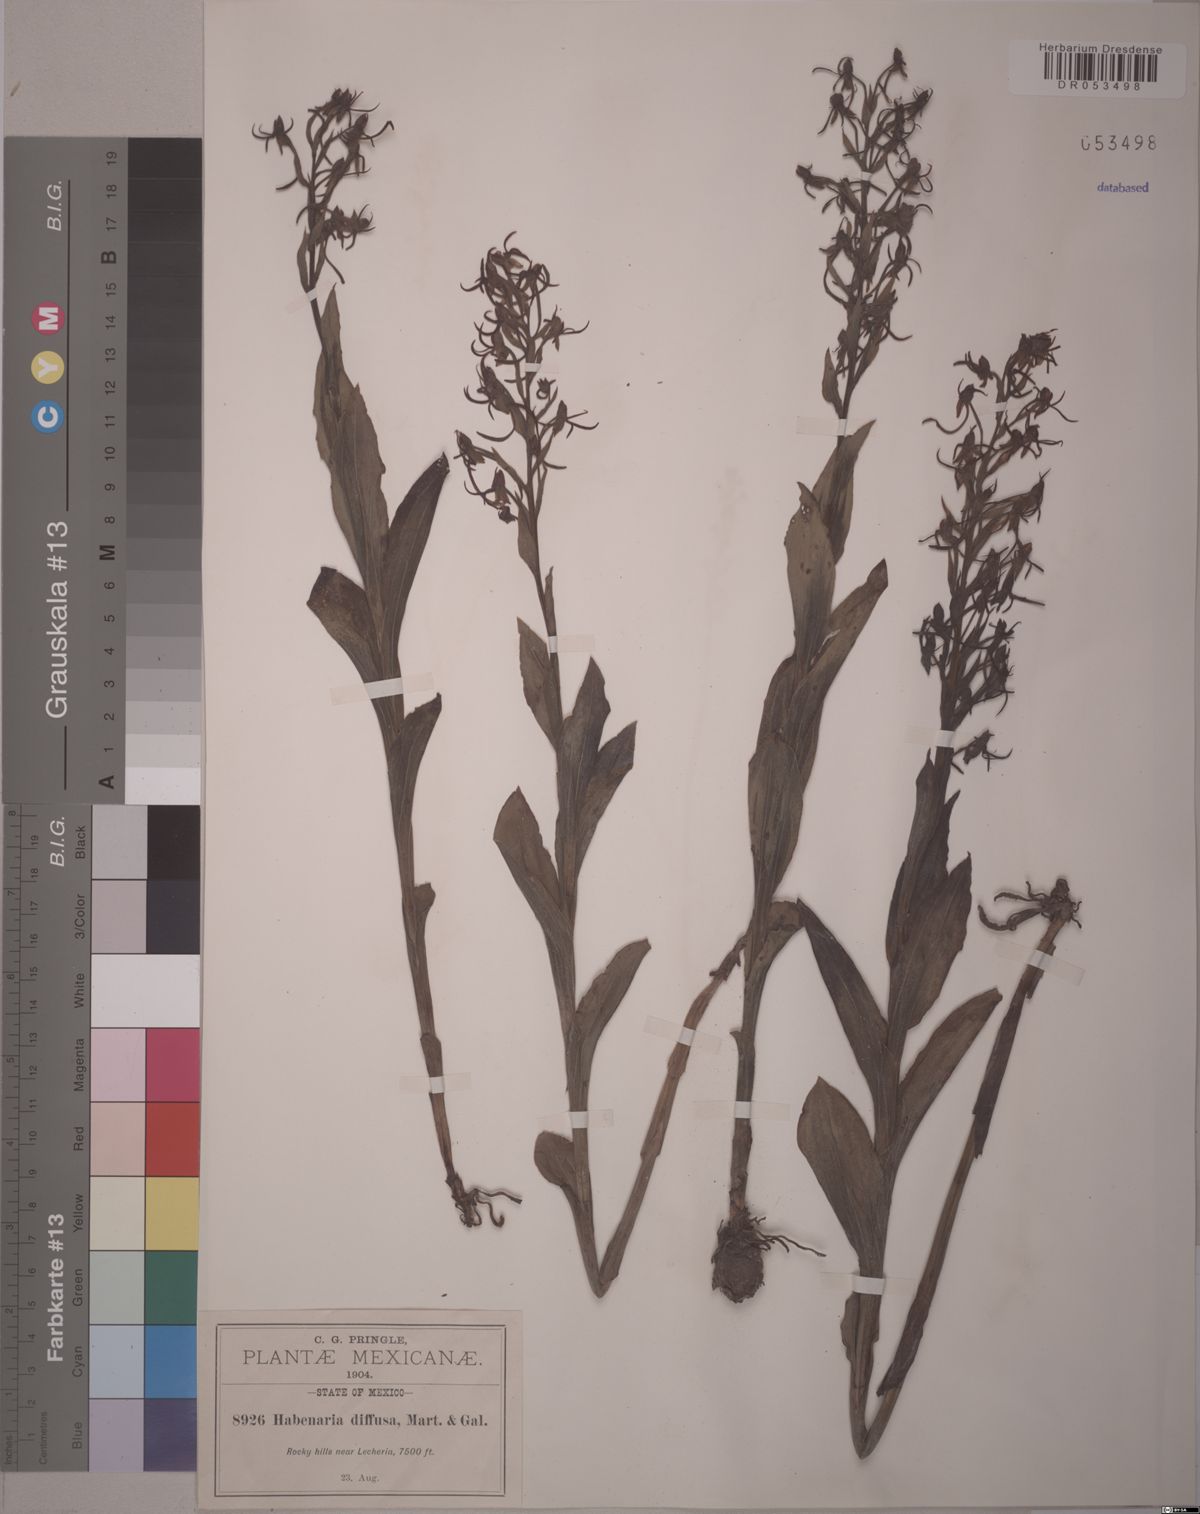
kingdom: Plantae
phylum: Tracheophyta
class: Liliopsida
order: Asparagales
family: Orchidaceae
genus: Habenaria
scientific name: Habenaria diffusa
